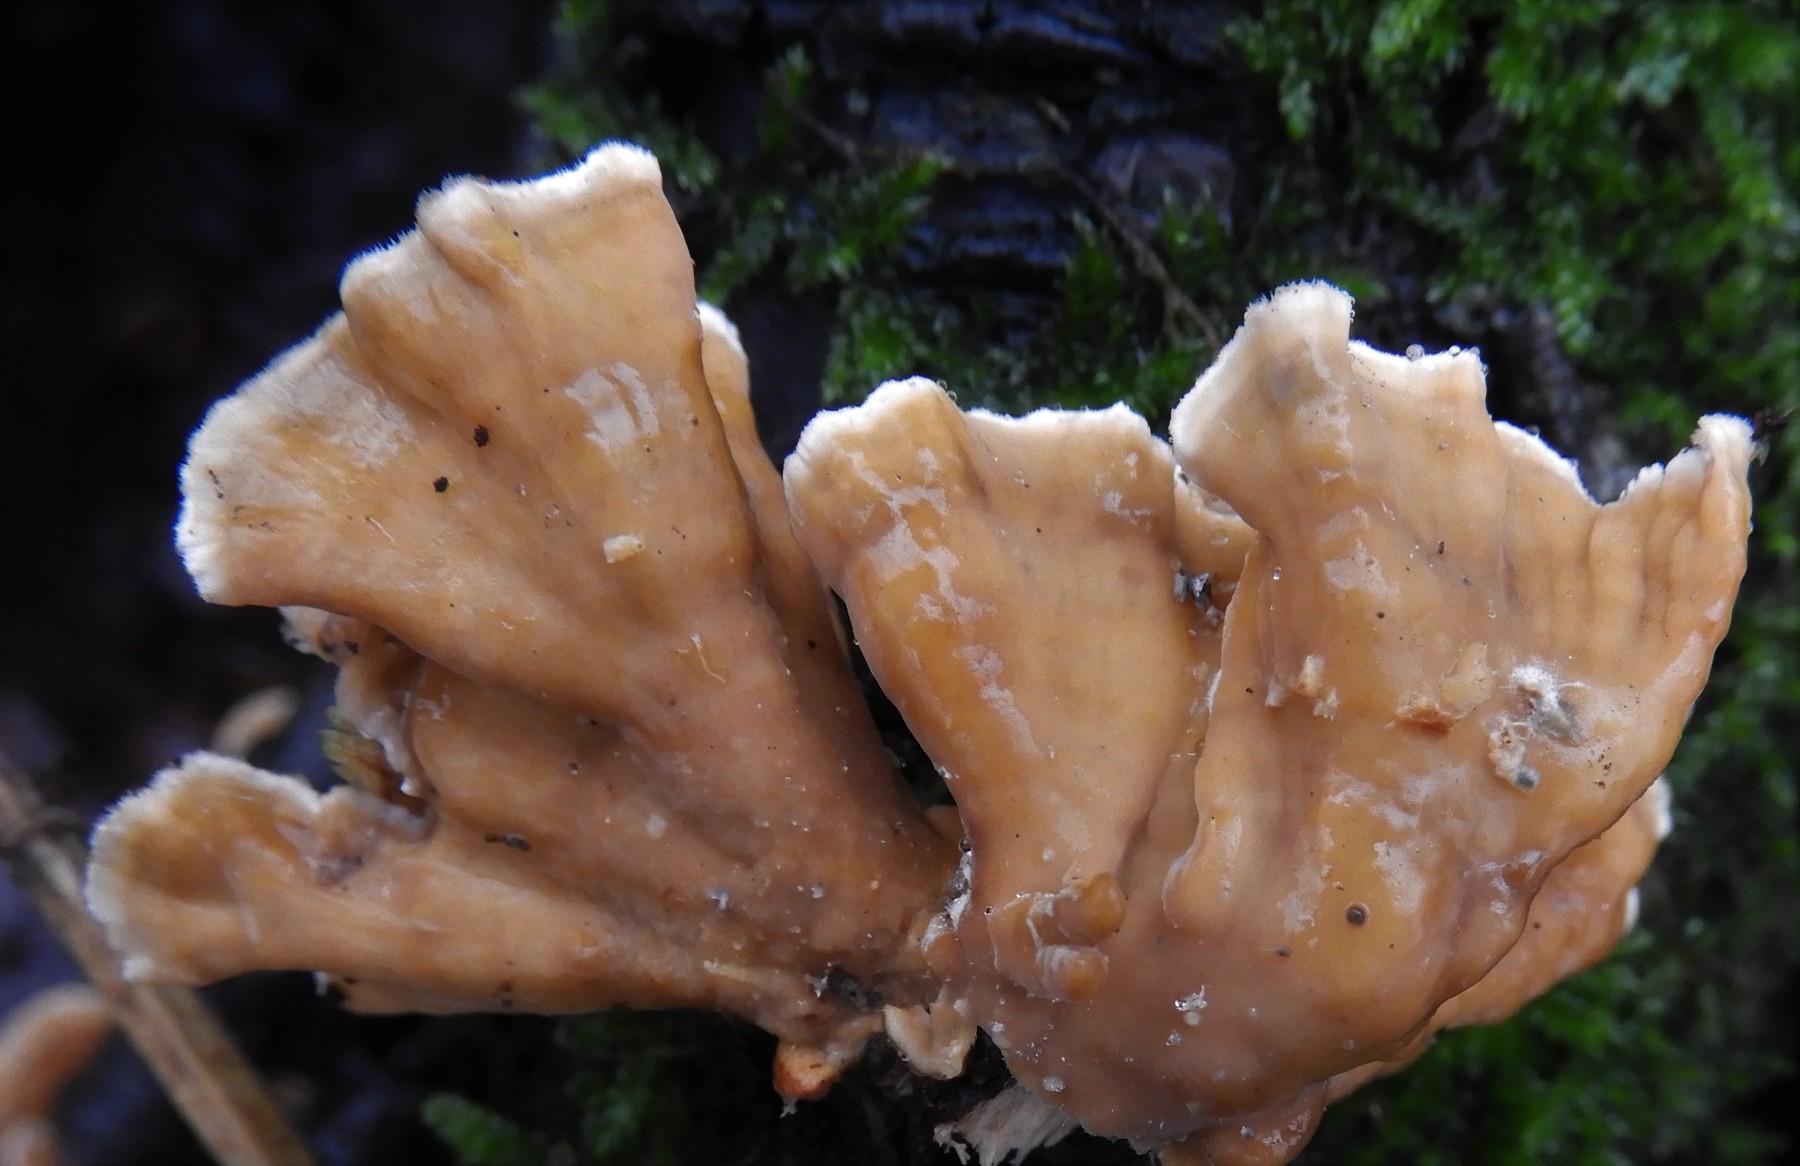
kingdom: Fungi
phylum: Basidiomycota
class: Agaricomycetes
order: Russulales
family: Stereaceae
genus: Stereum
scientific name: Stereum subtomentosum
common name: smuk lædersvamp
